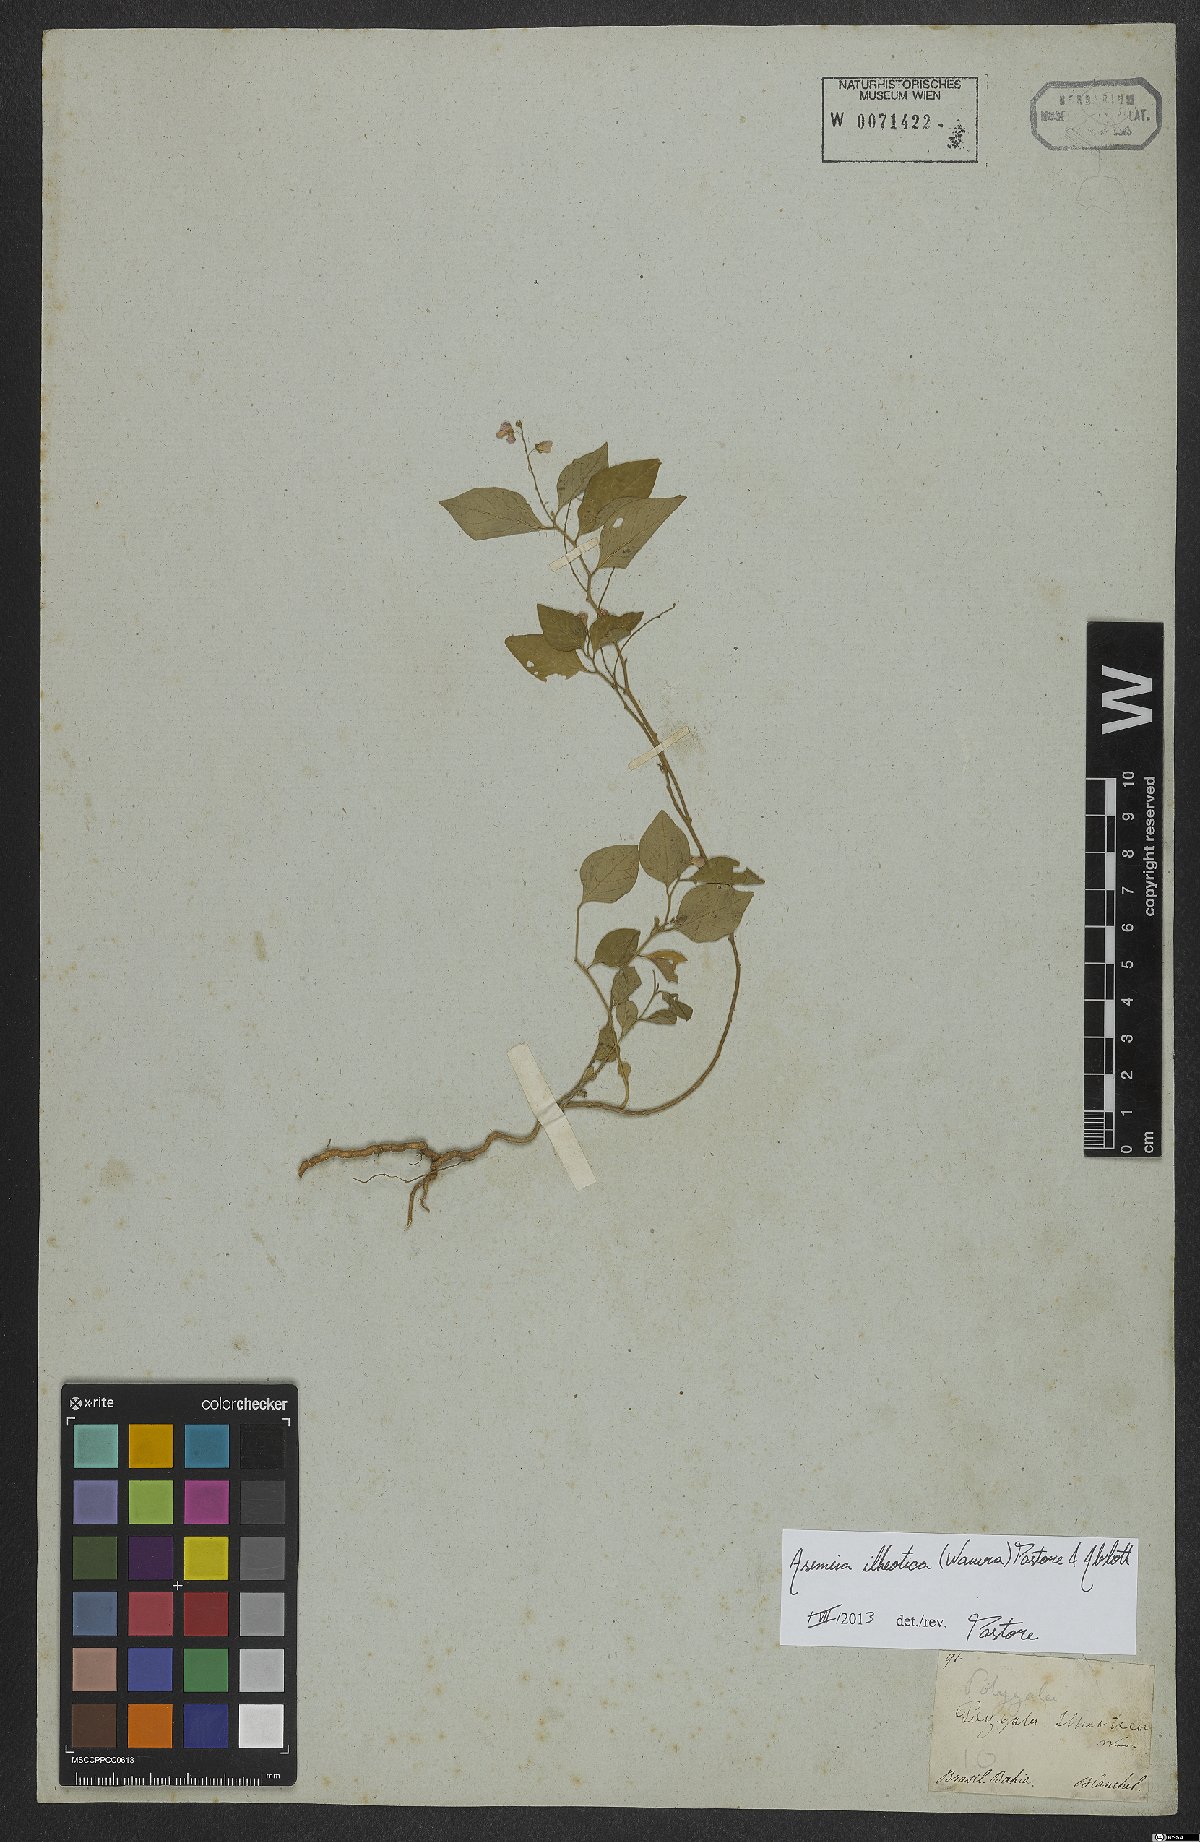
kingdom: Plantae
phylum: Tracheophyta
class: Magnoliopsida
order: Fabales
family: Polygalaceae
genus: Asemeia
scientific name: Asemeia ilheotica
